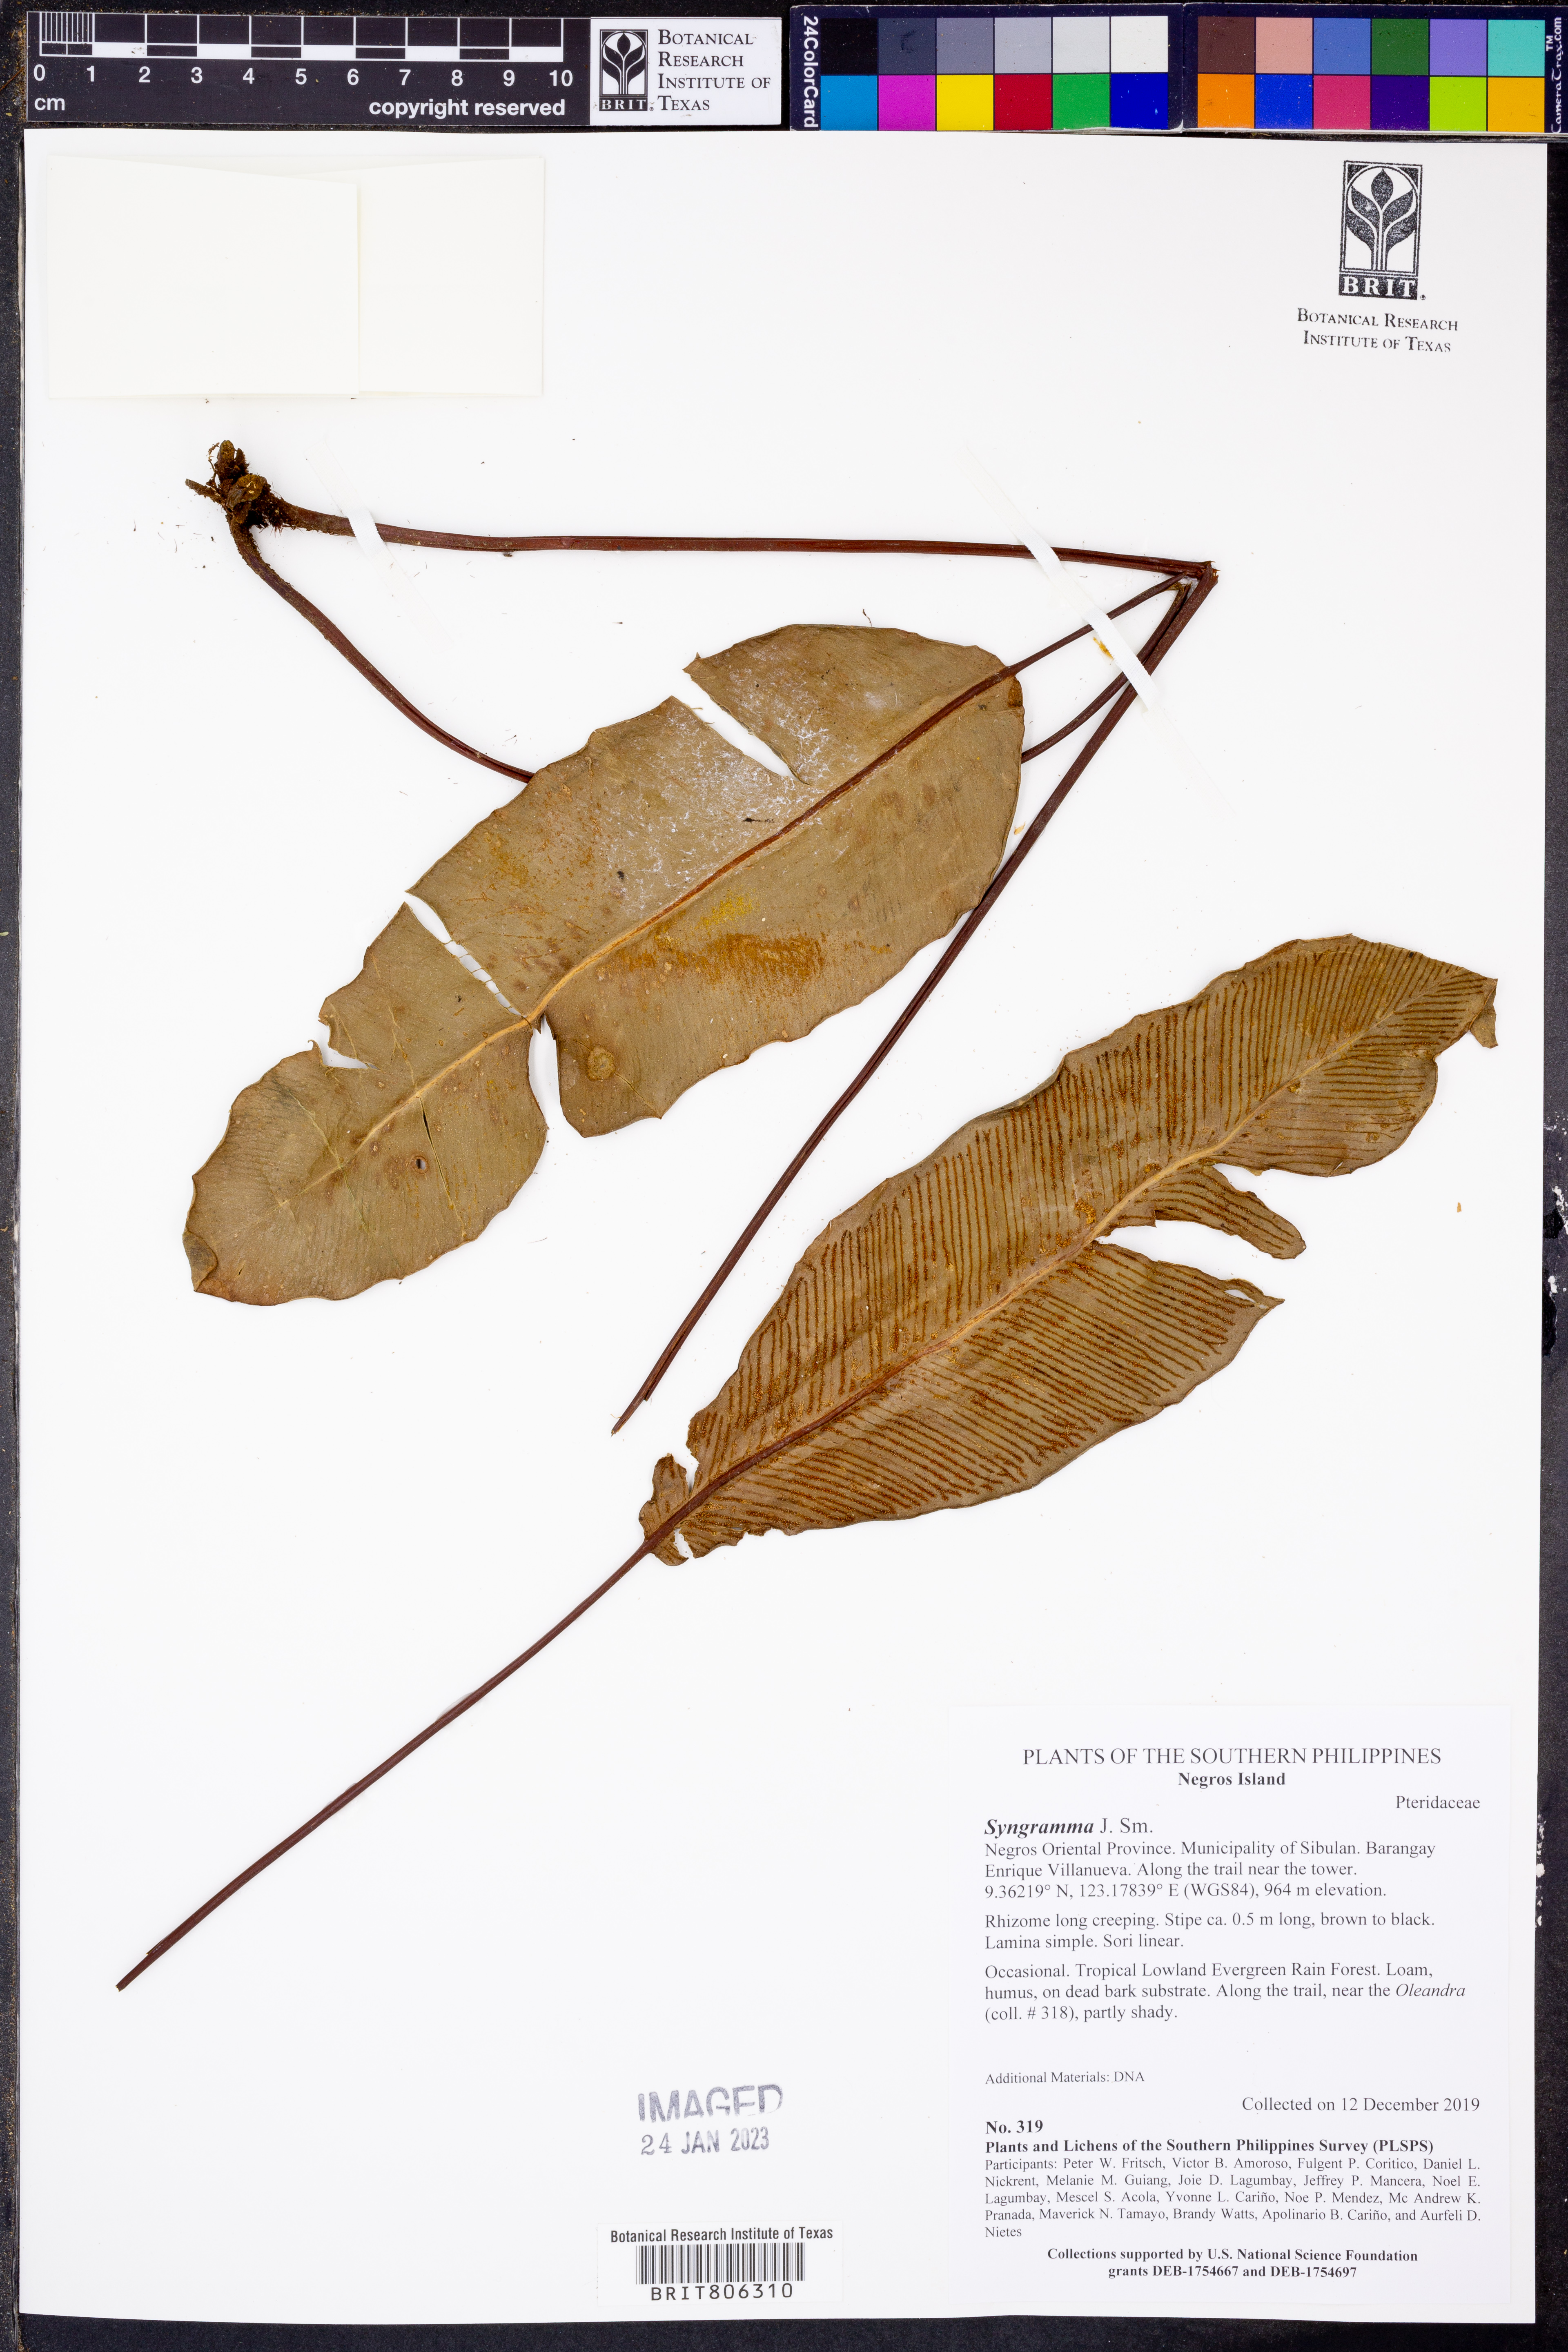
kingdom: Plantae
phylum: Tracheophyta
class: Polypodiopsida
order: Polypodiales
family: Pteridaceae
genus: Syngramma
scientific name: Syngramma
